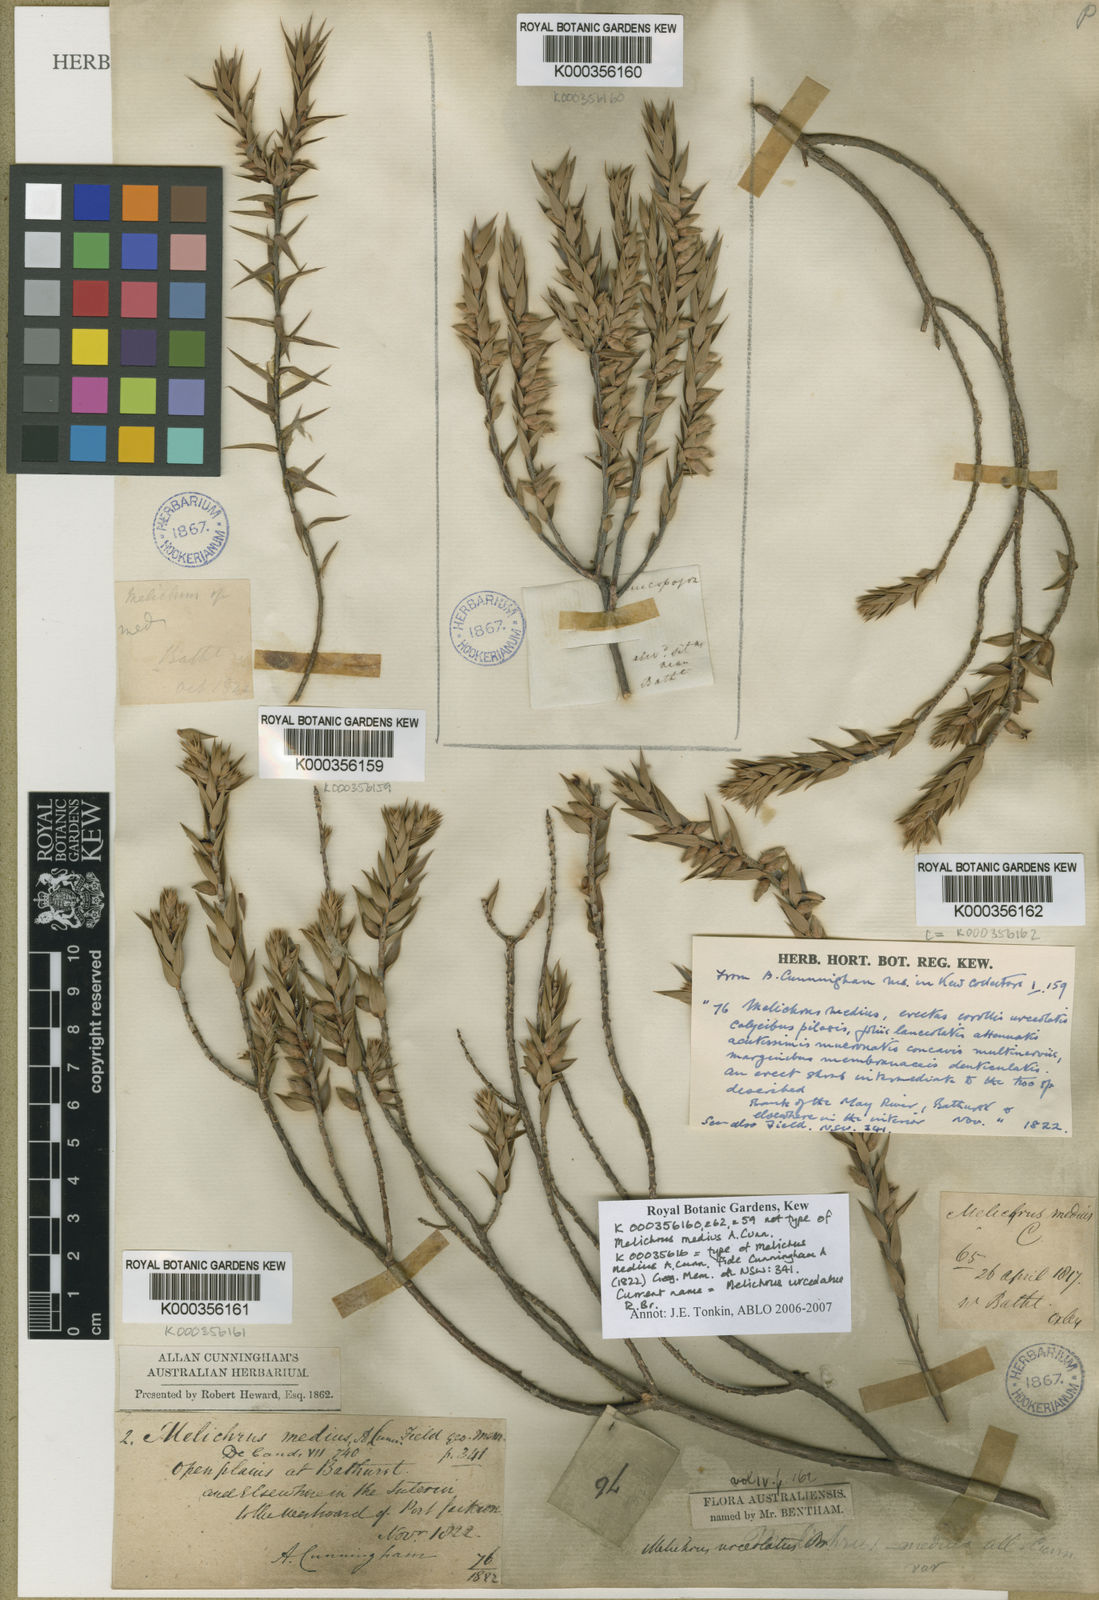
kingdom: Plantae
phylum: Tracheophyta
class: Magnoliopsida
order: Ericales
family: Ericaceae
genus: Melichrus
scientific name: Melichrus urceolatus
